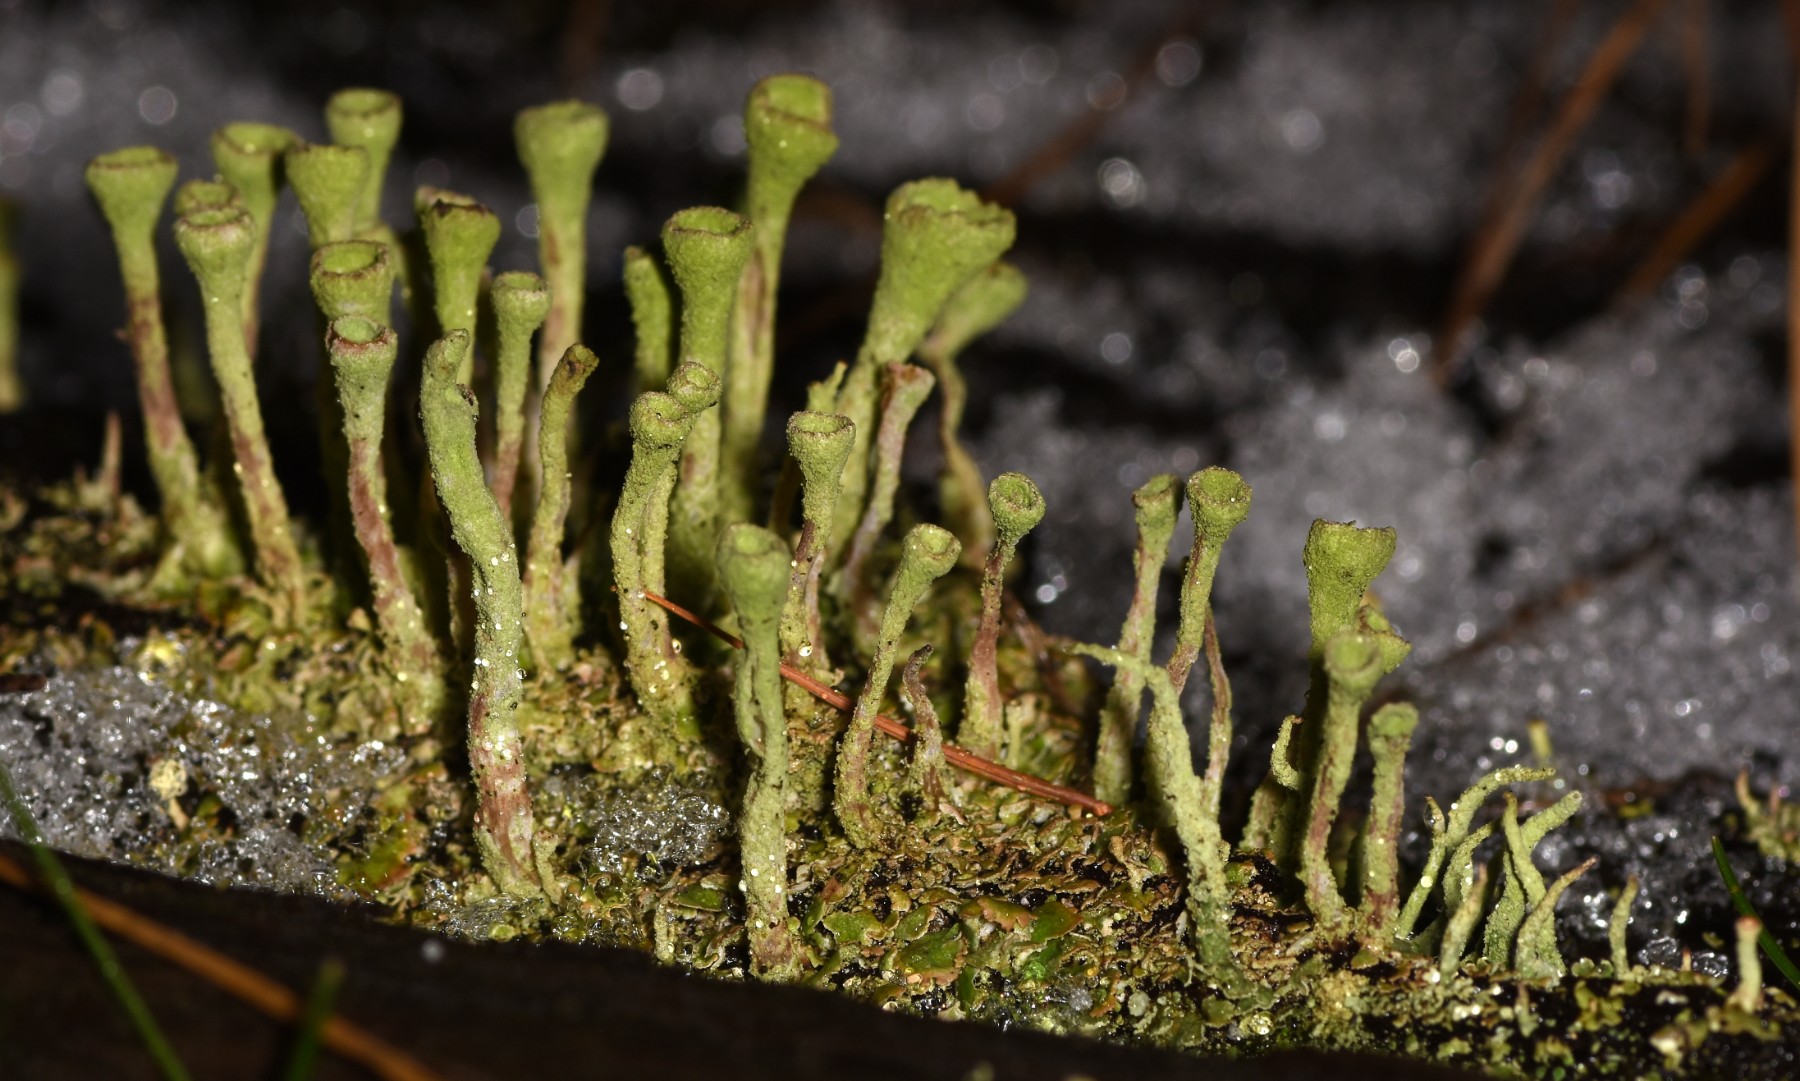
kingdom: Fungi
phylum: Ascomycota
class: Lecanoromycetes
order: Lecanorales
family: Cladoniaceae
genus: Cladonia
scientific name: Cladonia
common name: brungrøn bægerlav
